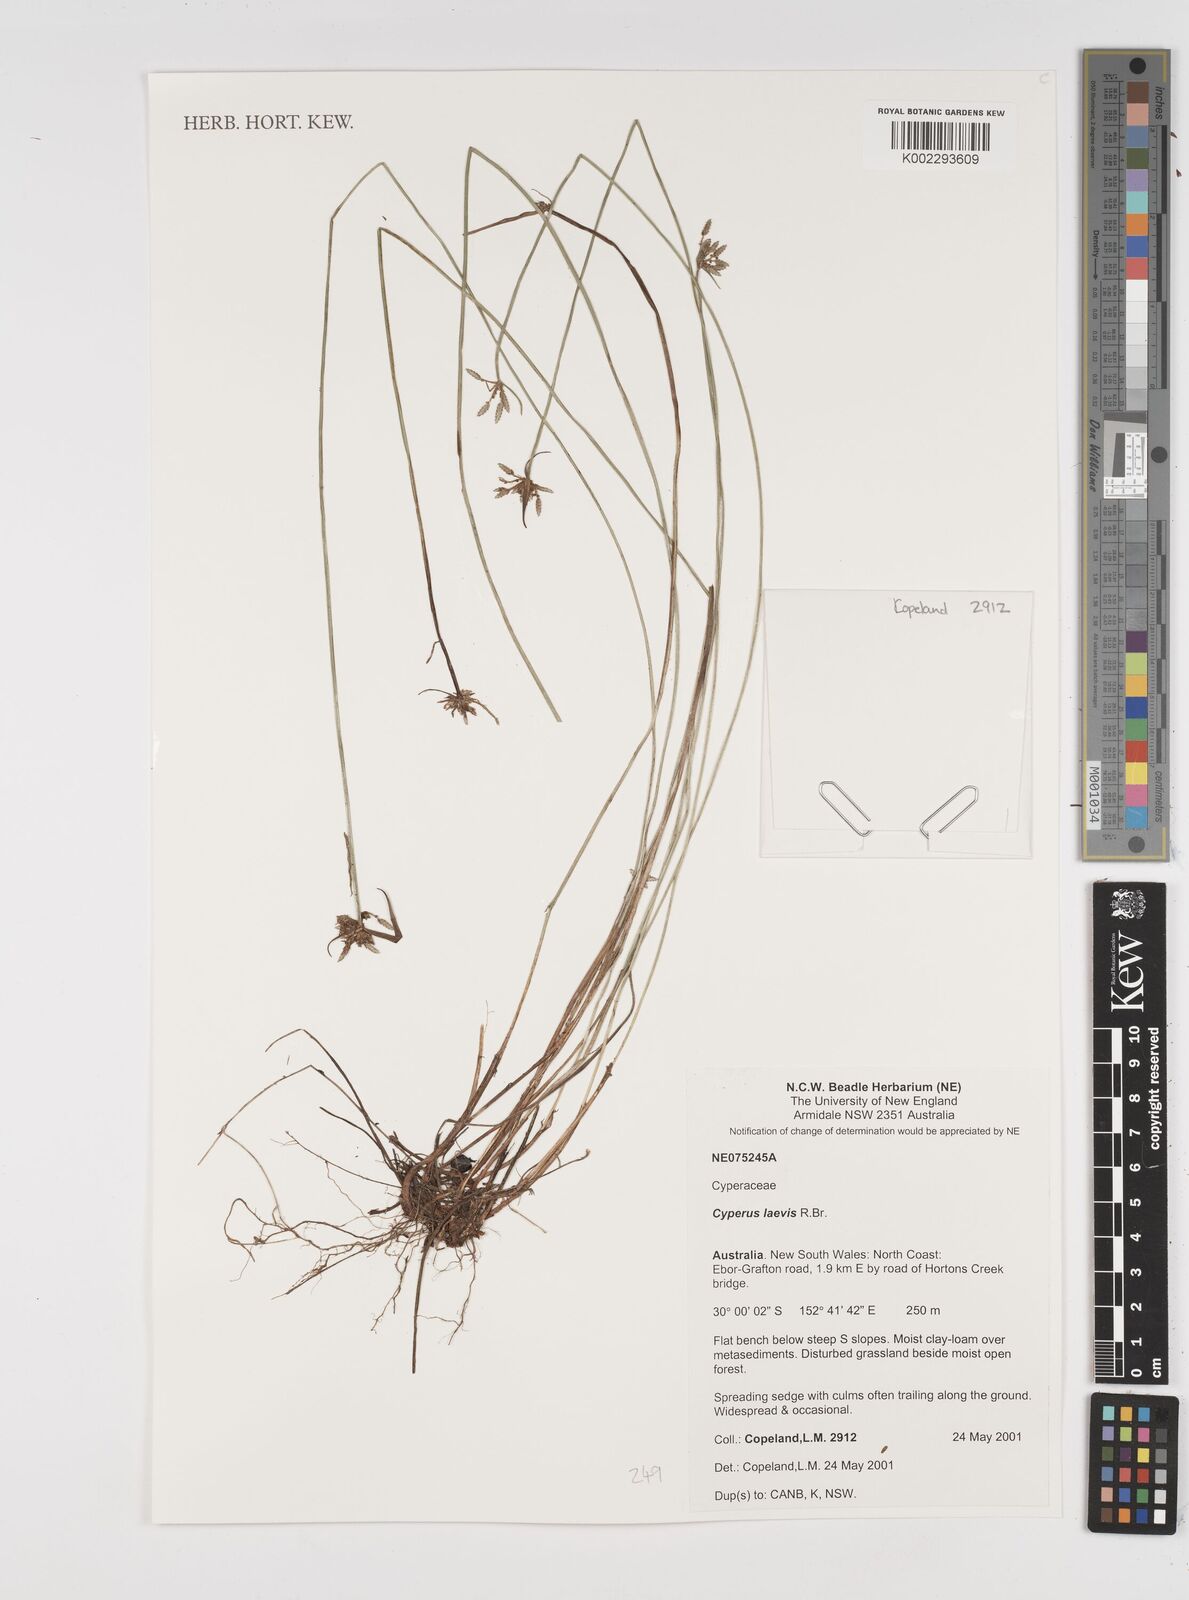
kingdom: Plantae
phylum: Tracheophyta
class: Liliopsida
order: Poales
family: Cyperaceae
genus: Cyperus
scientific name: Cyperus laevis
